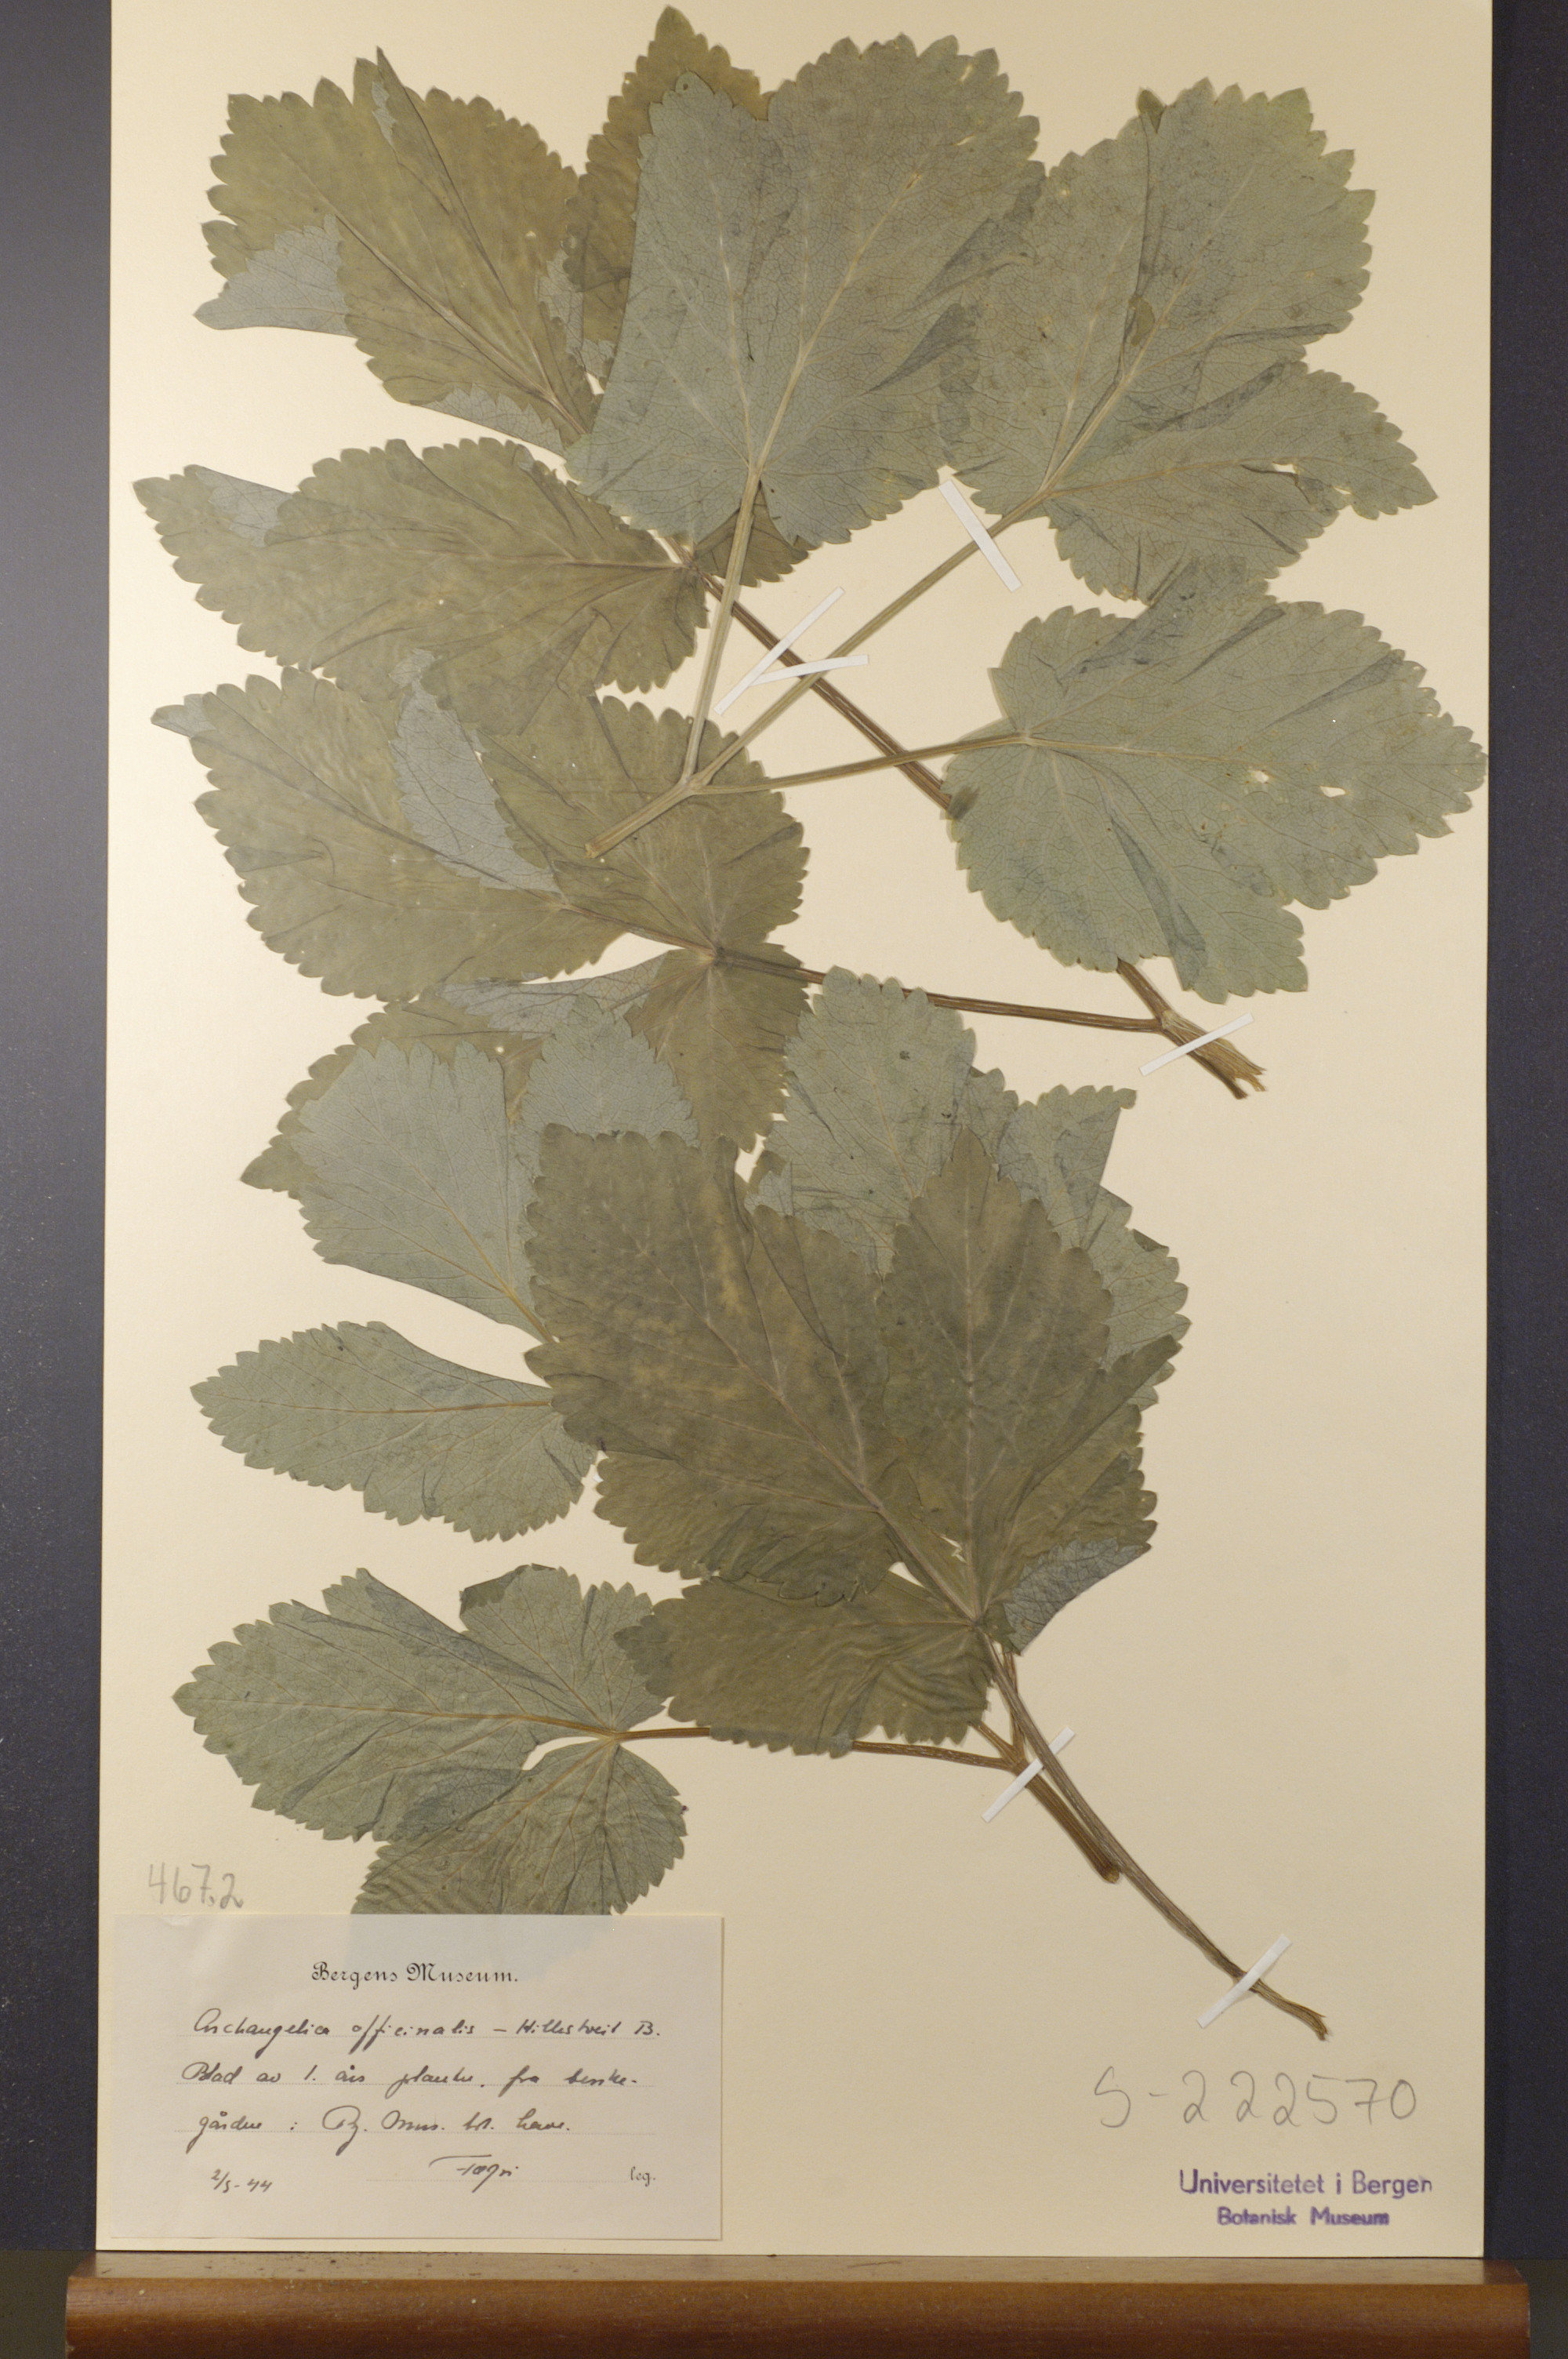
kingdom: Plantae
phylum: Tracheophyta
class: Magnoliopsida
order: Apiales
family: Apiaceae
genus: Angelica
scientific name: Angelica archangelica
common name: Garden angelica
